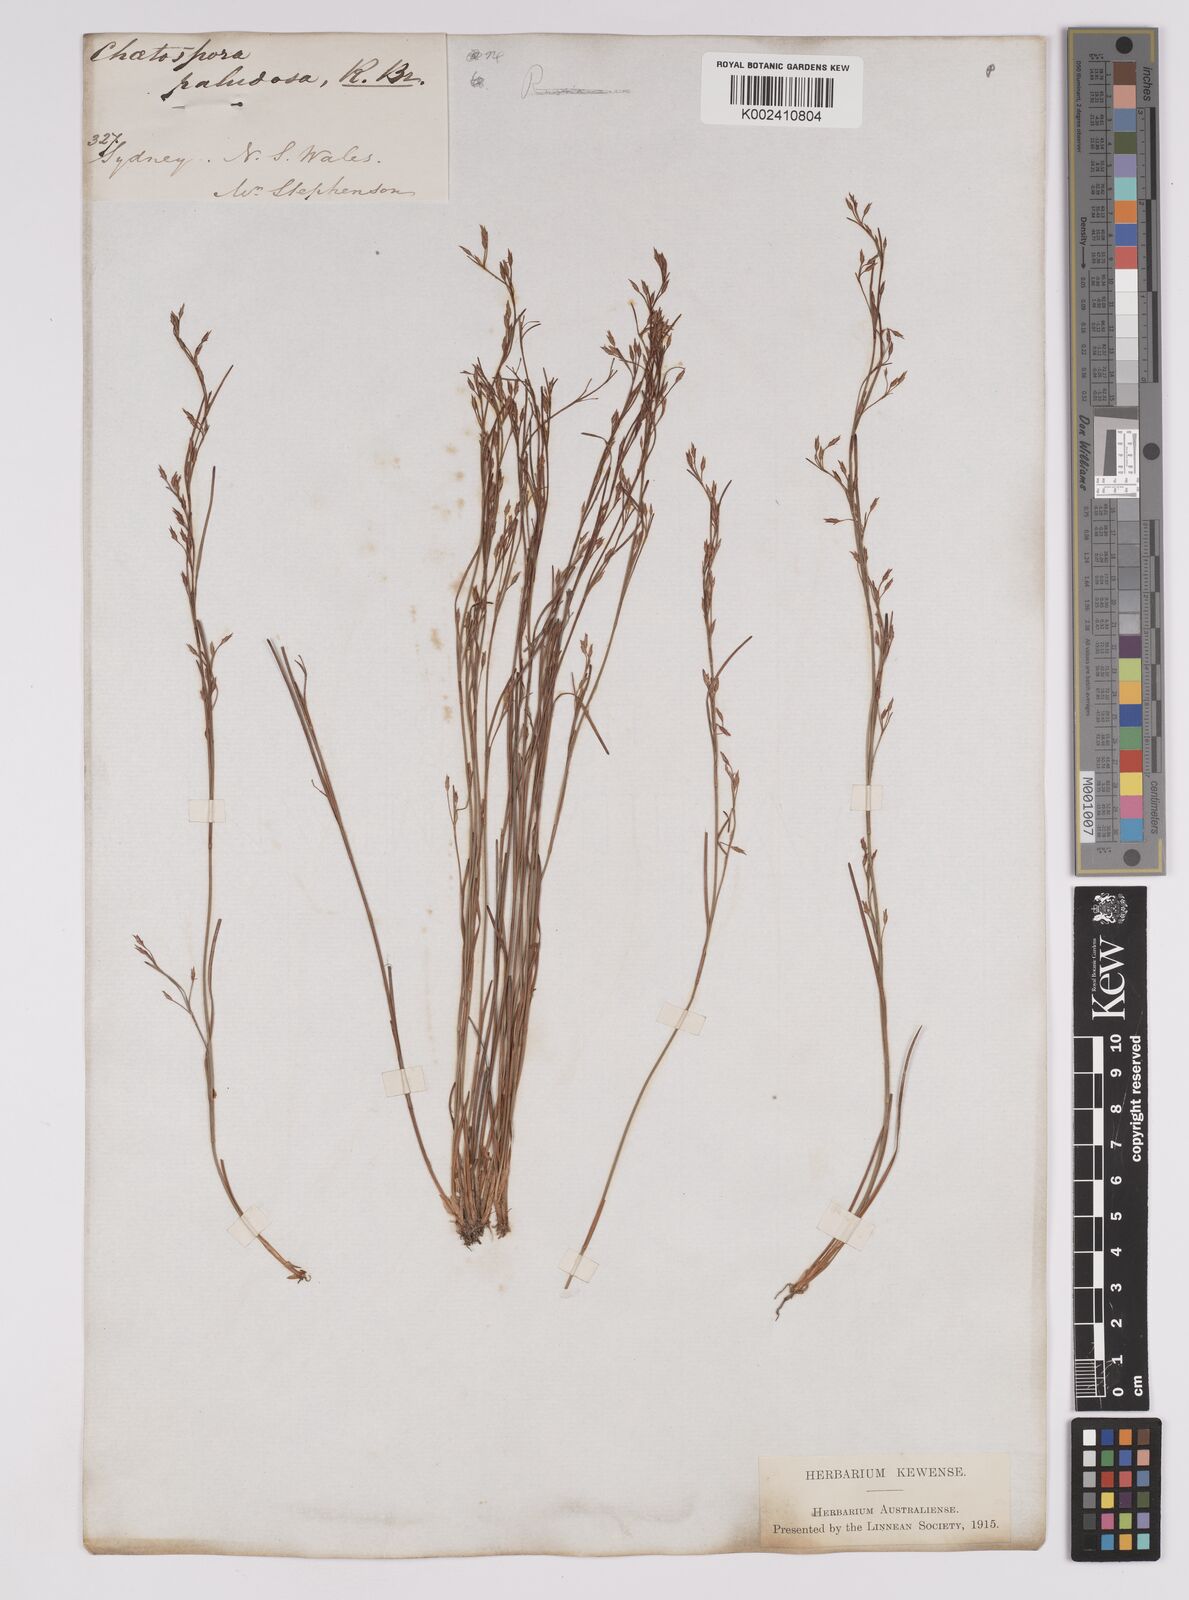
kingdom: Plantae
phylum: Tracheophyta
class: Liliopsida
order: Poales
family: Cyperaceae
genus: Anthelepis
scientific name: Anthelepis paludosa
